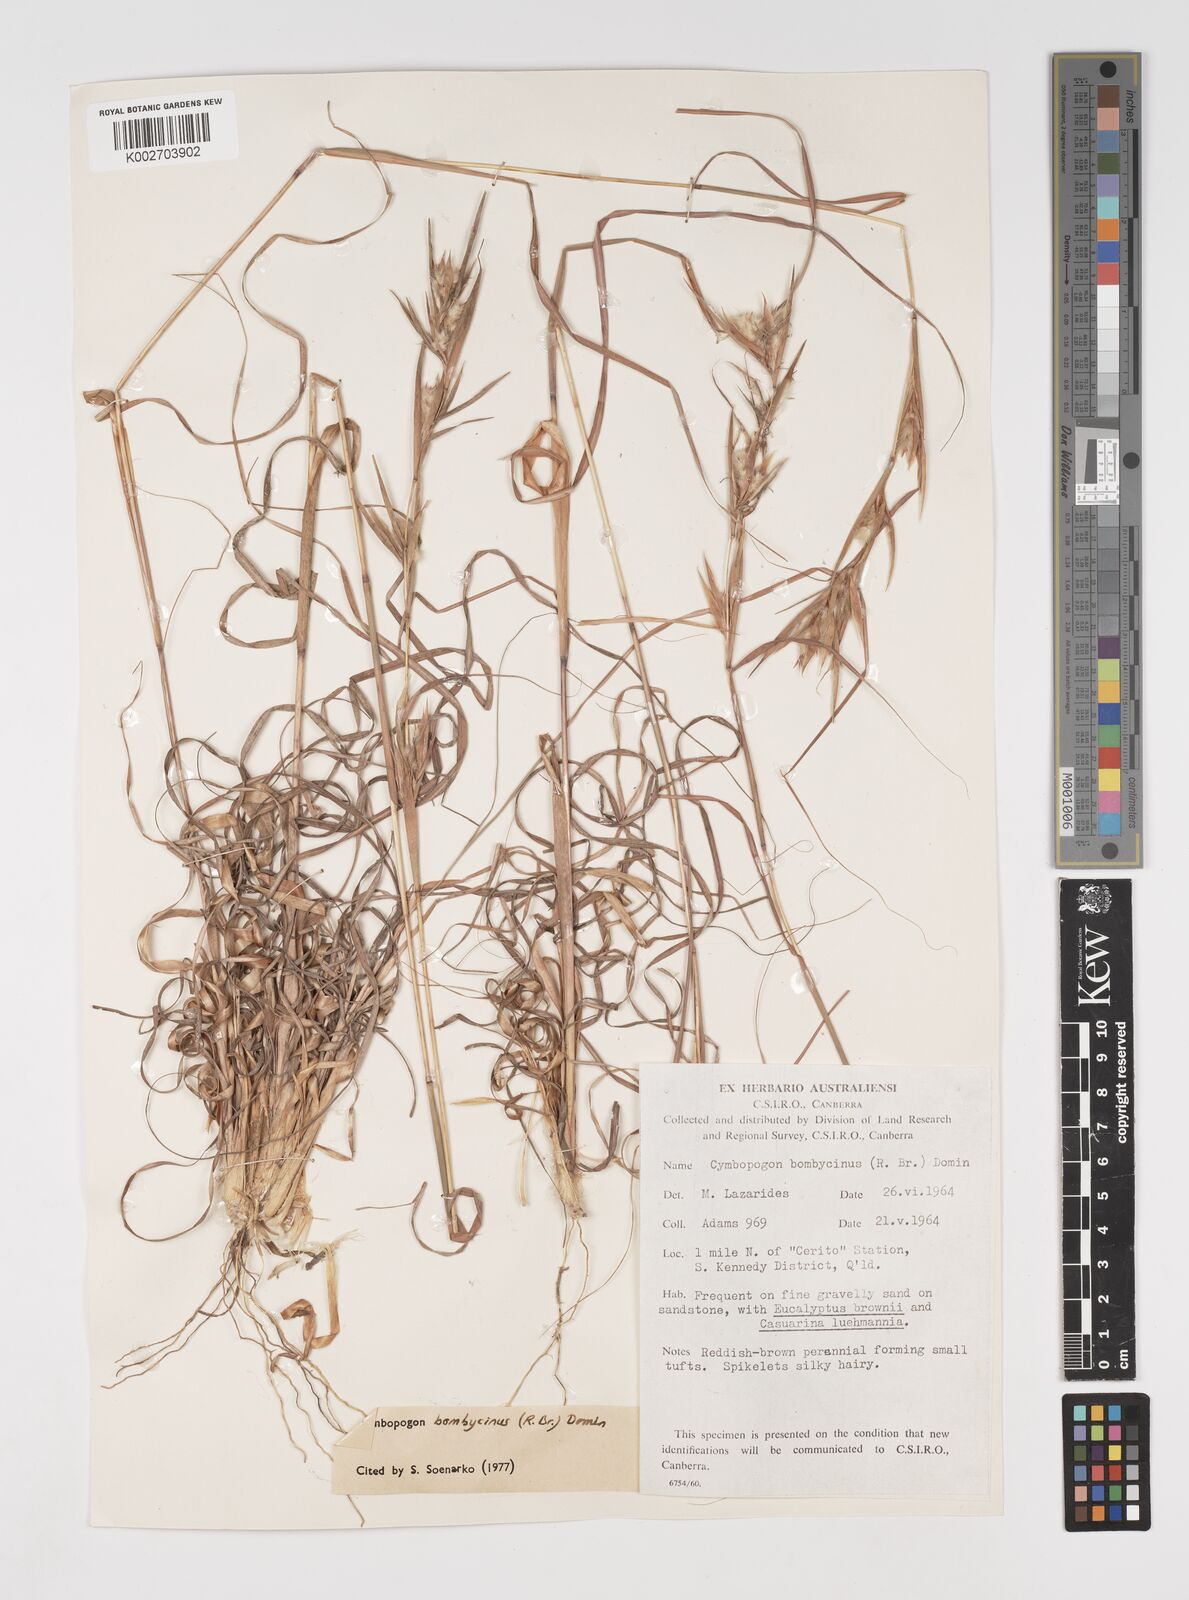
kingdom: Plantae
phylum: Tracheophyta
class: Liliopsida
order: Poales
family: Poaceae
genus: Cymbopogon
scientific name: Cymbopogon bombycinus
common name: Citronella grass
